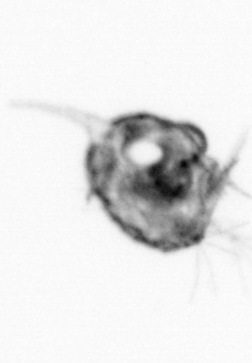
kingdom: Animalia
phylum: Arthropoda
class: Malacostraca
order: Decapoda
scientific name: Decapoda
